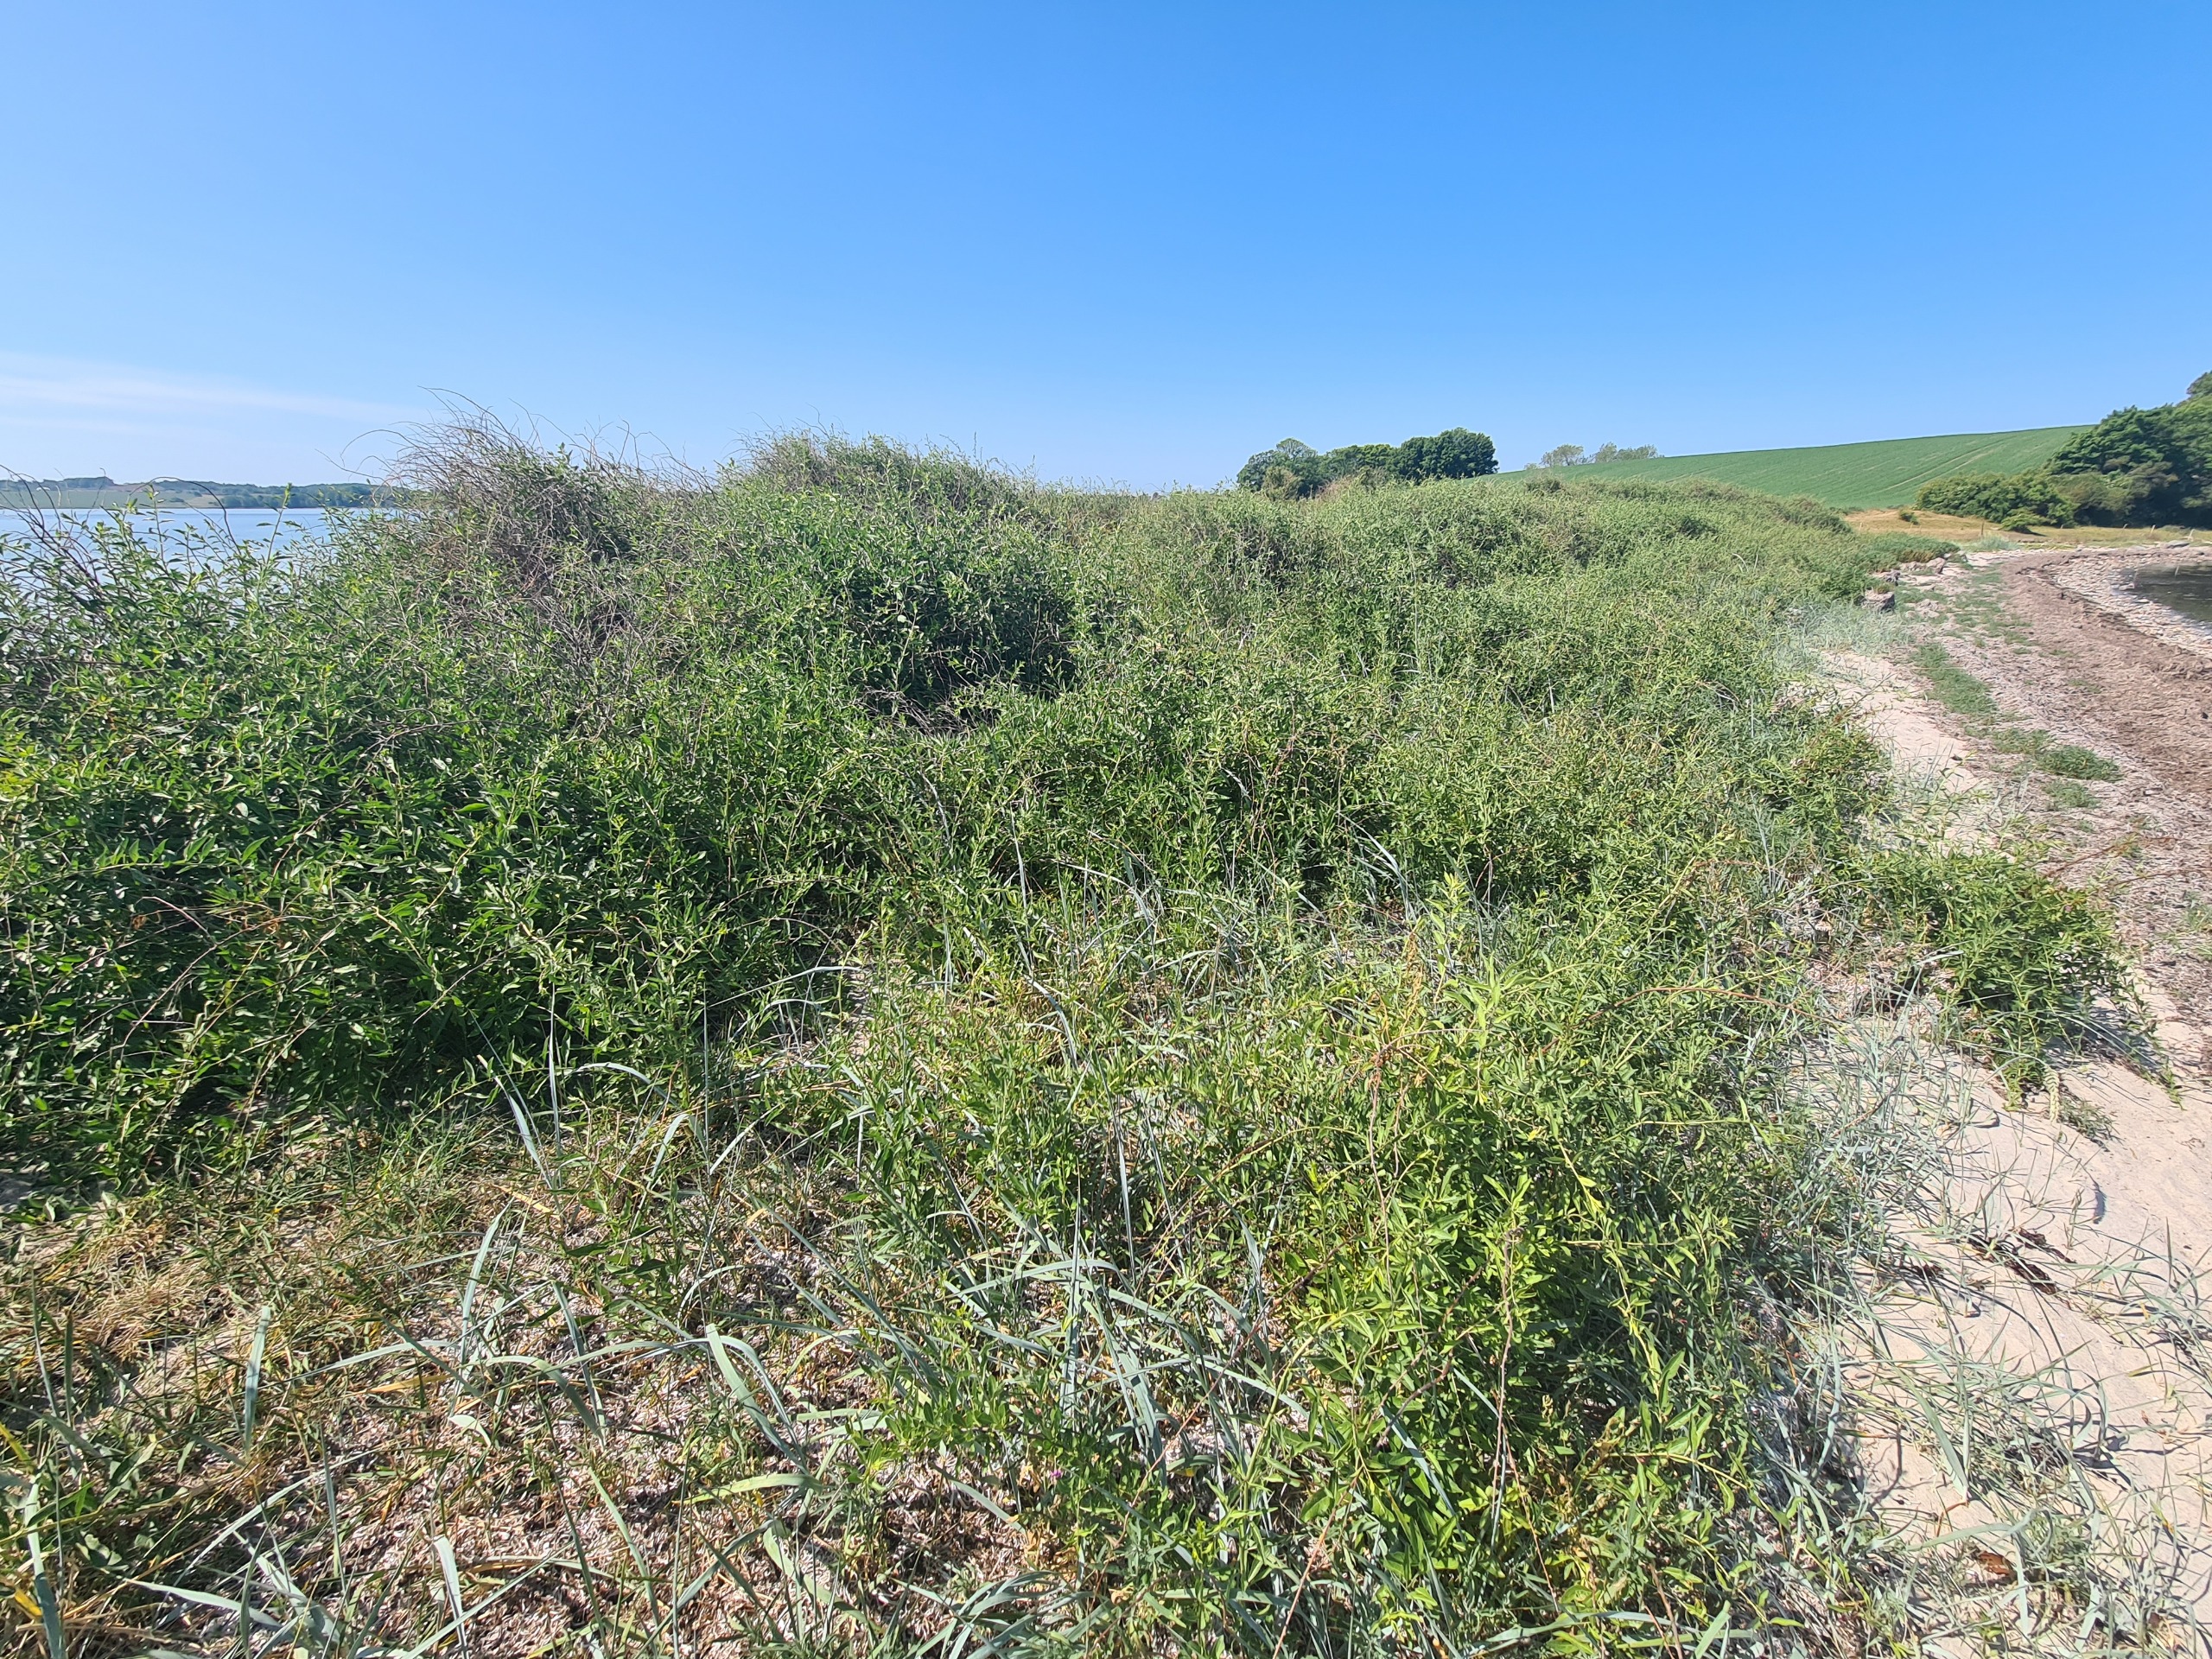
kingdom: Plantae
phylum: Tracheophyta
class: Magnoliopsida
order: Solanales
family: Solanaceae
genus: Lycium
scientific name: Lycium barbarum
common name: Bukketorn
